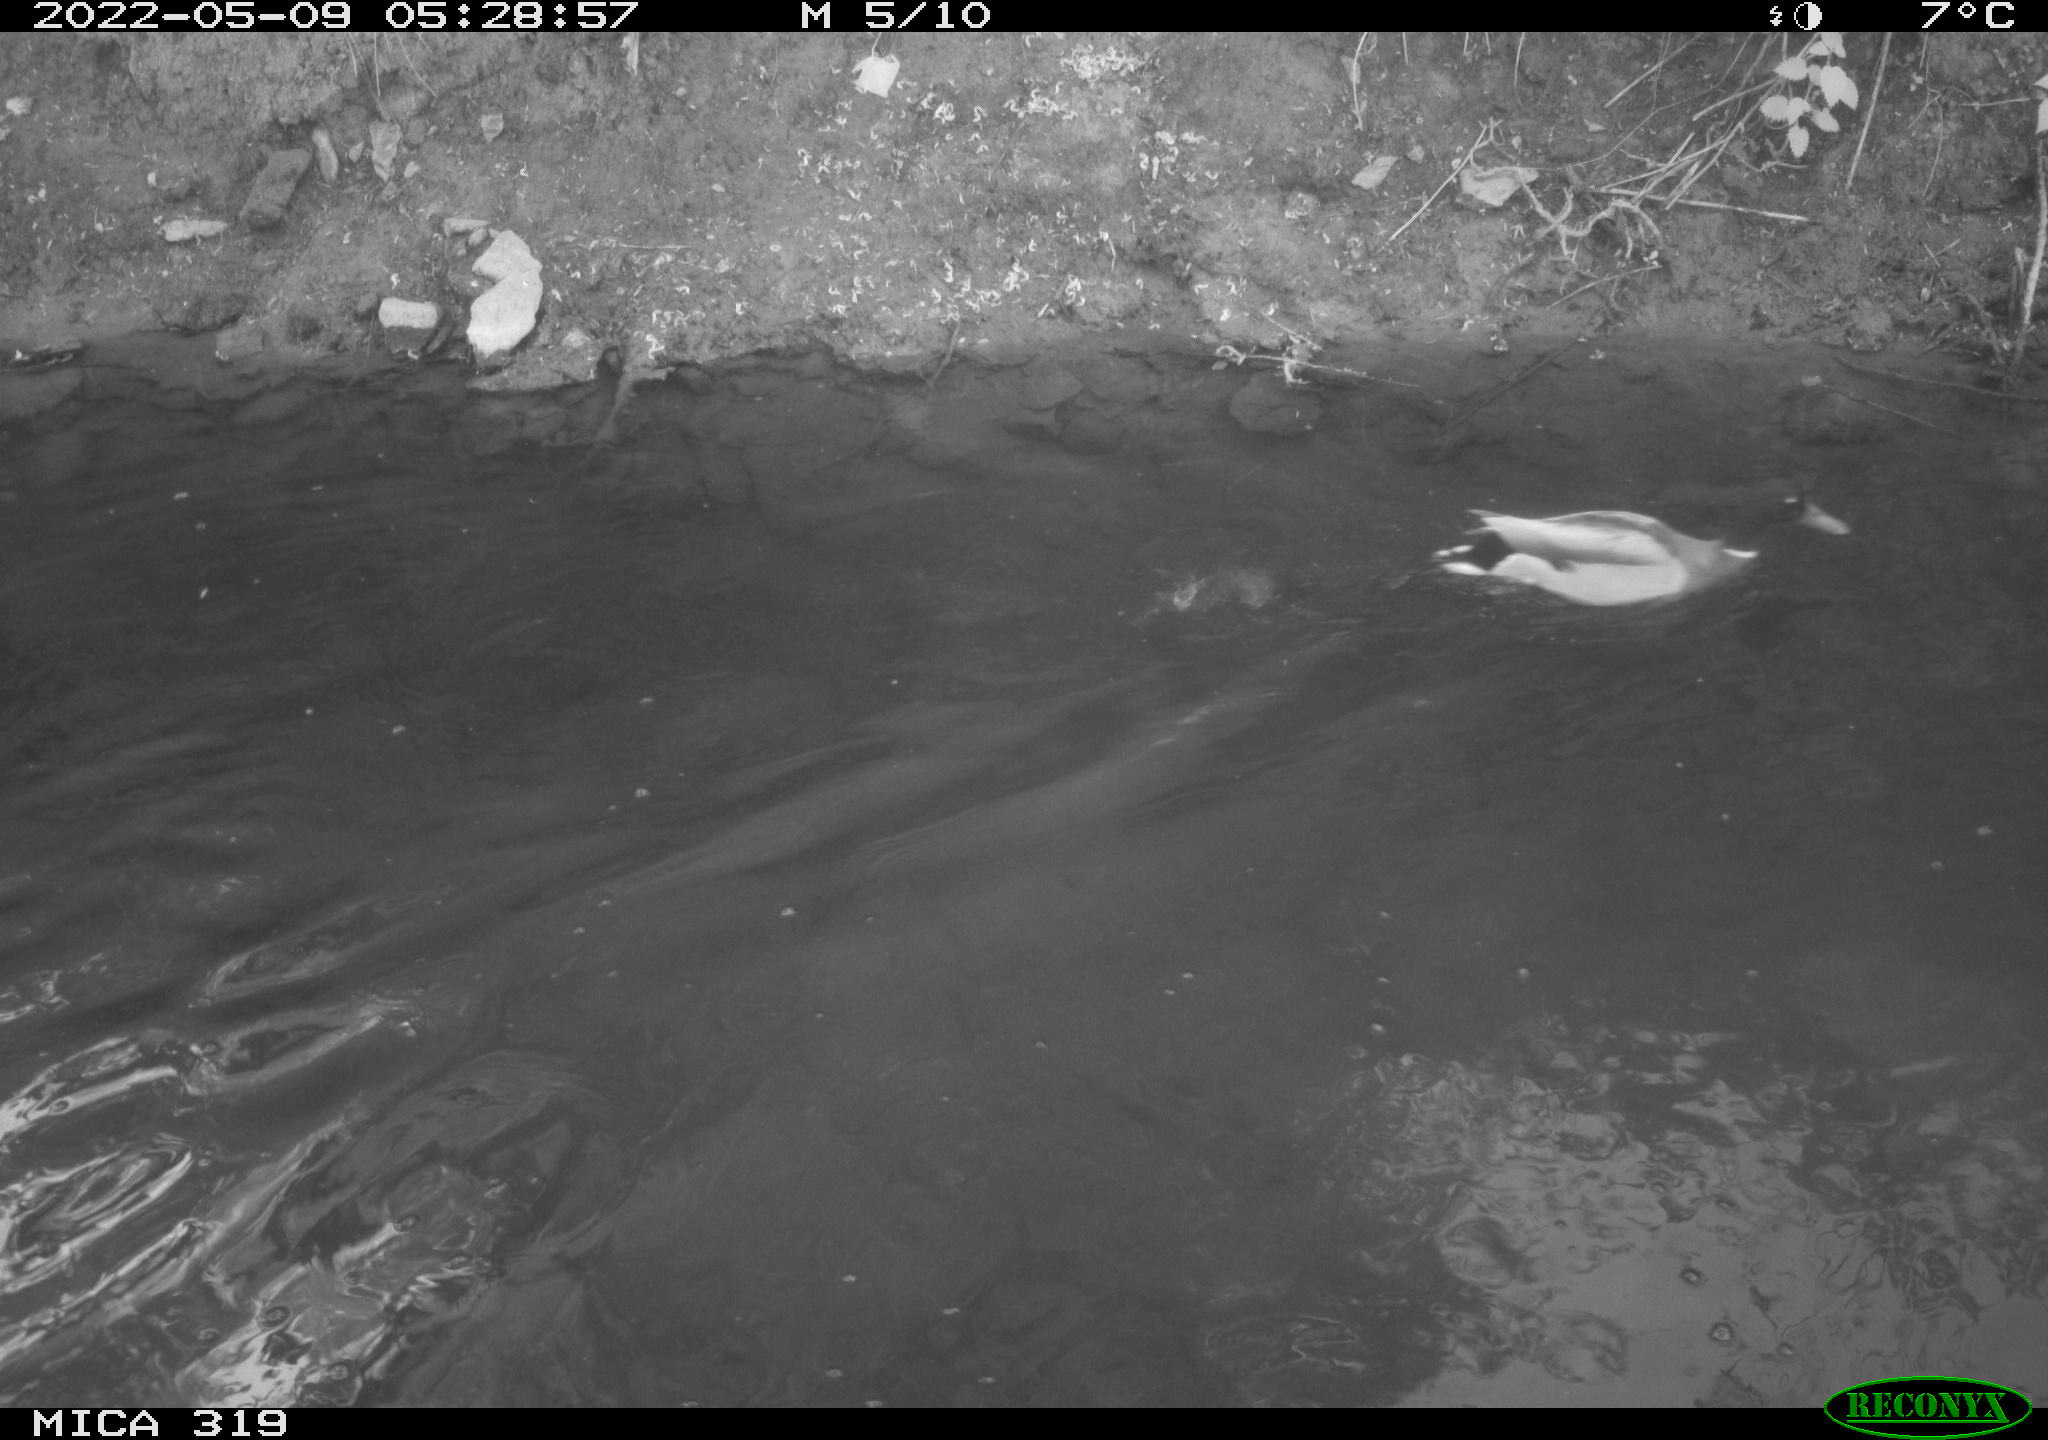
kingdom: Animalia
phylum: Chordata
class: Aves
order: Anseriformes
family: Anatidae
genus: Anas
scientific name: Anas platyrhynchos
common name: Mallard
